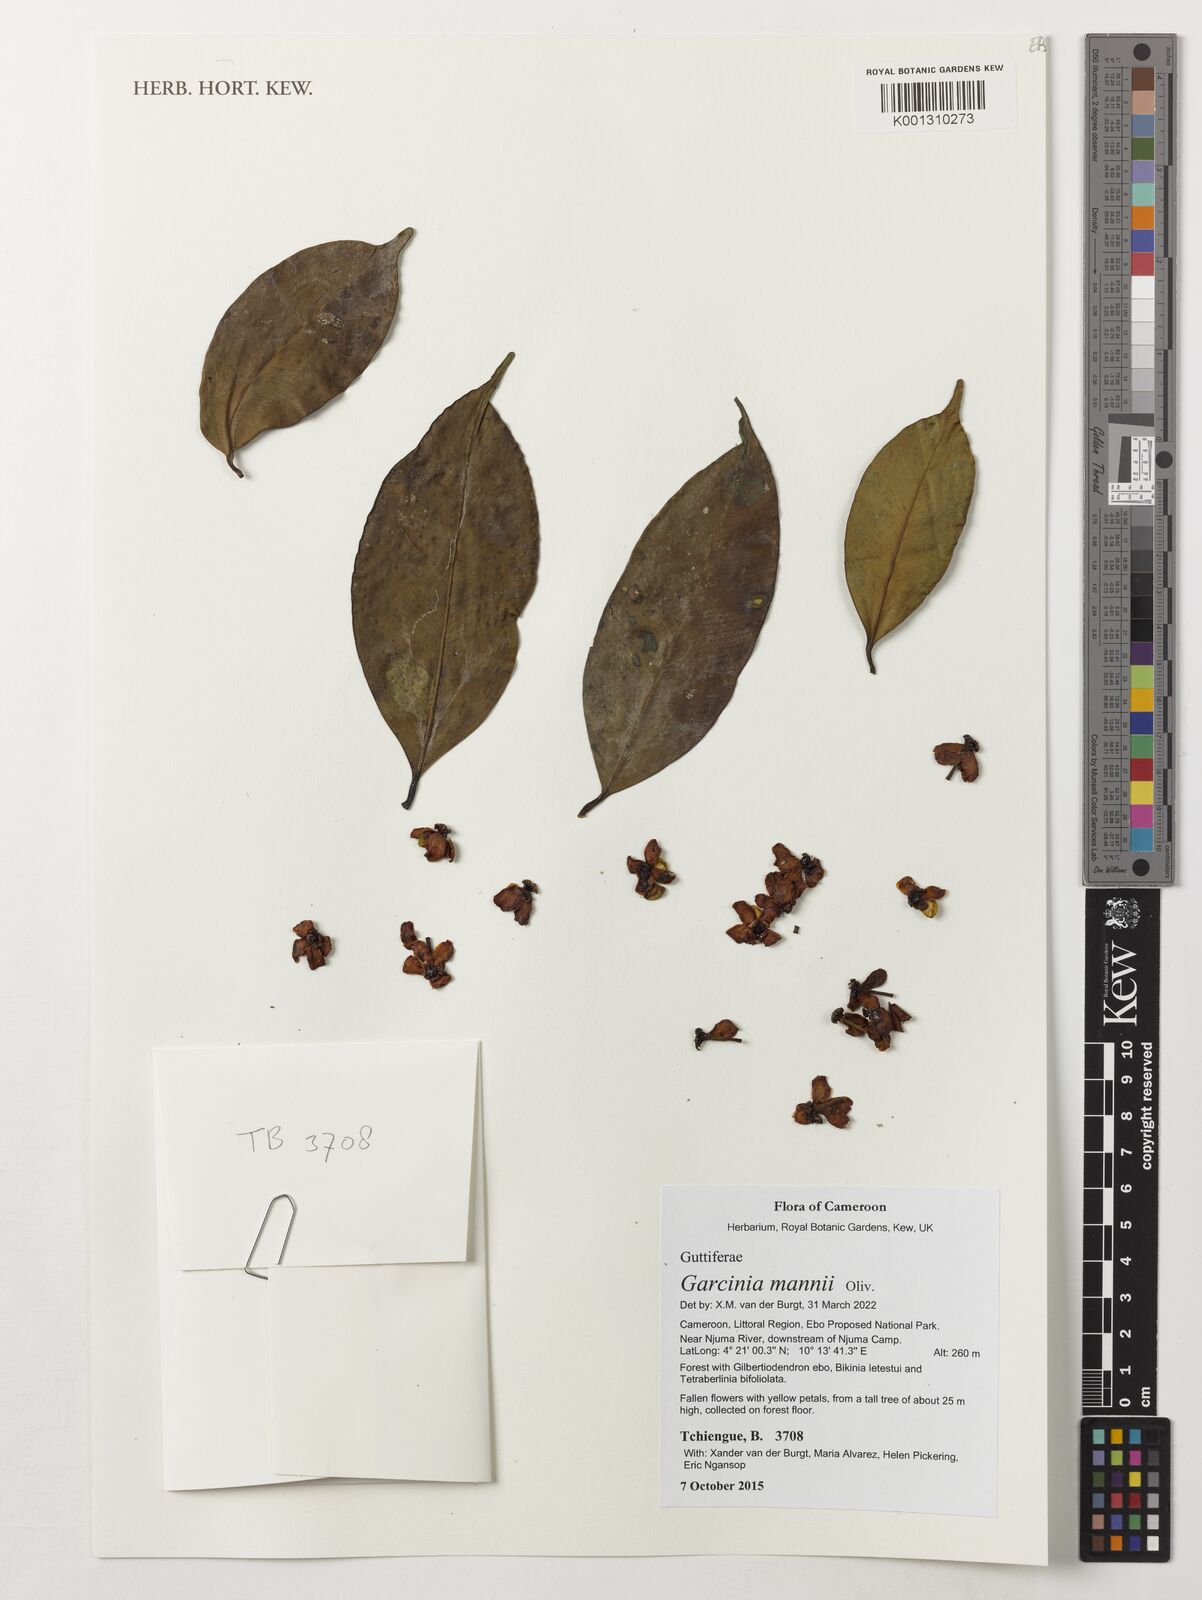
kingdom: Plantae
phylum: Tracheophyta
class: Magnoliopsida
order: Malpighiales
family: Clusiaceae
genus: Garcinia
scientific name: Garcinia mannii
